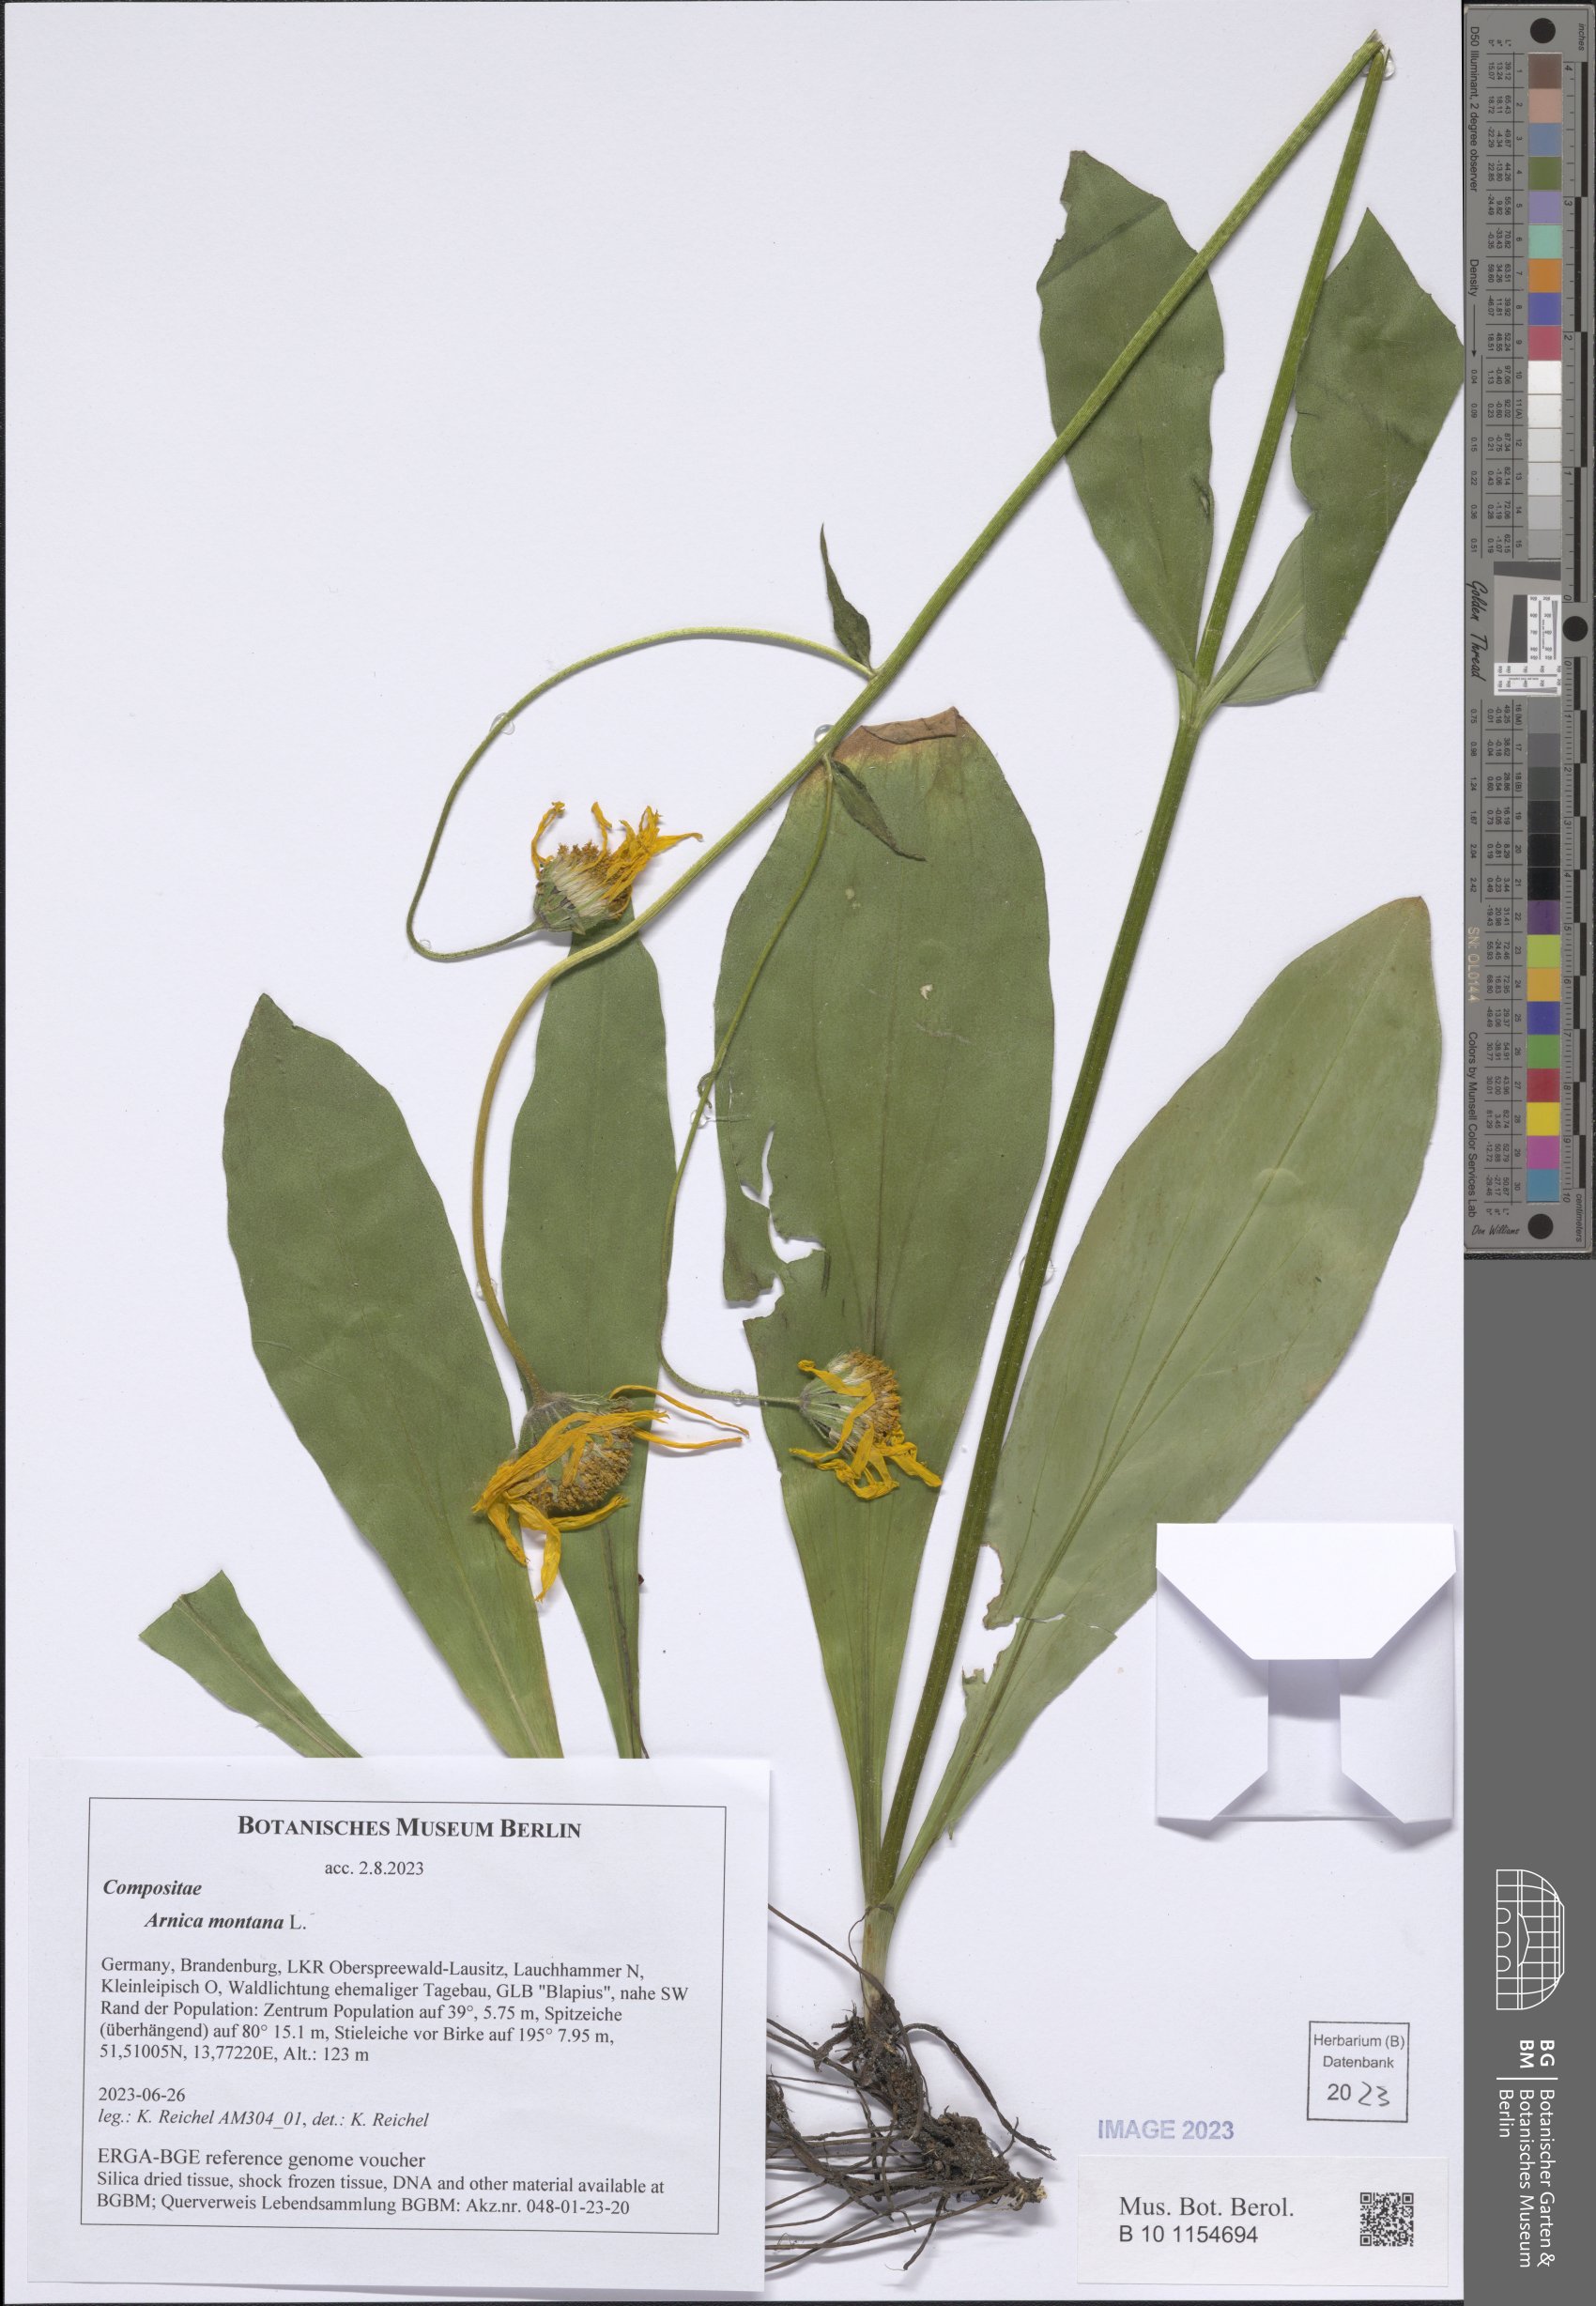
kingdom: Plantae
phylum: Tracheophyta
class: Magnoliopsida
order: Asterales
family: Asteraceae
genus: Arnica
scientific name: Arnica montana
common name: Leopard's bane
